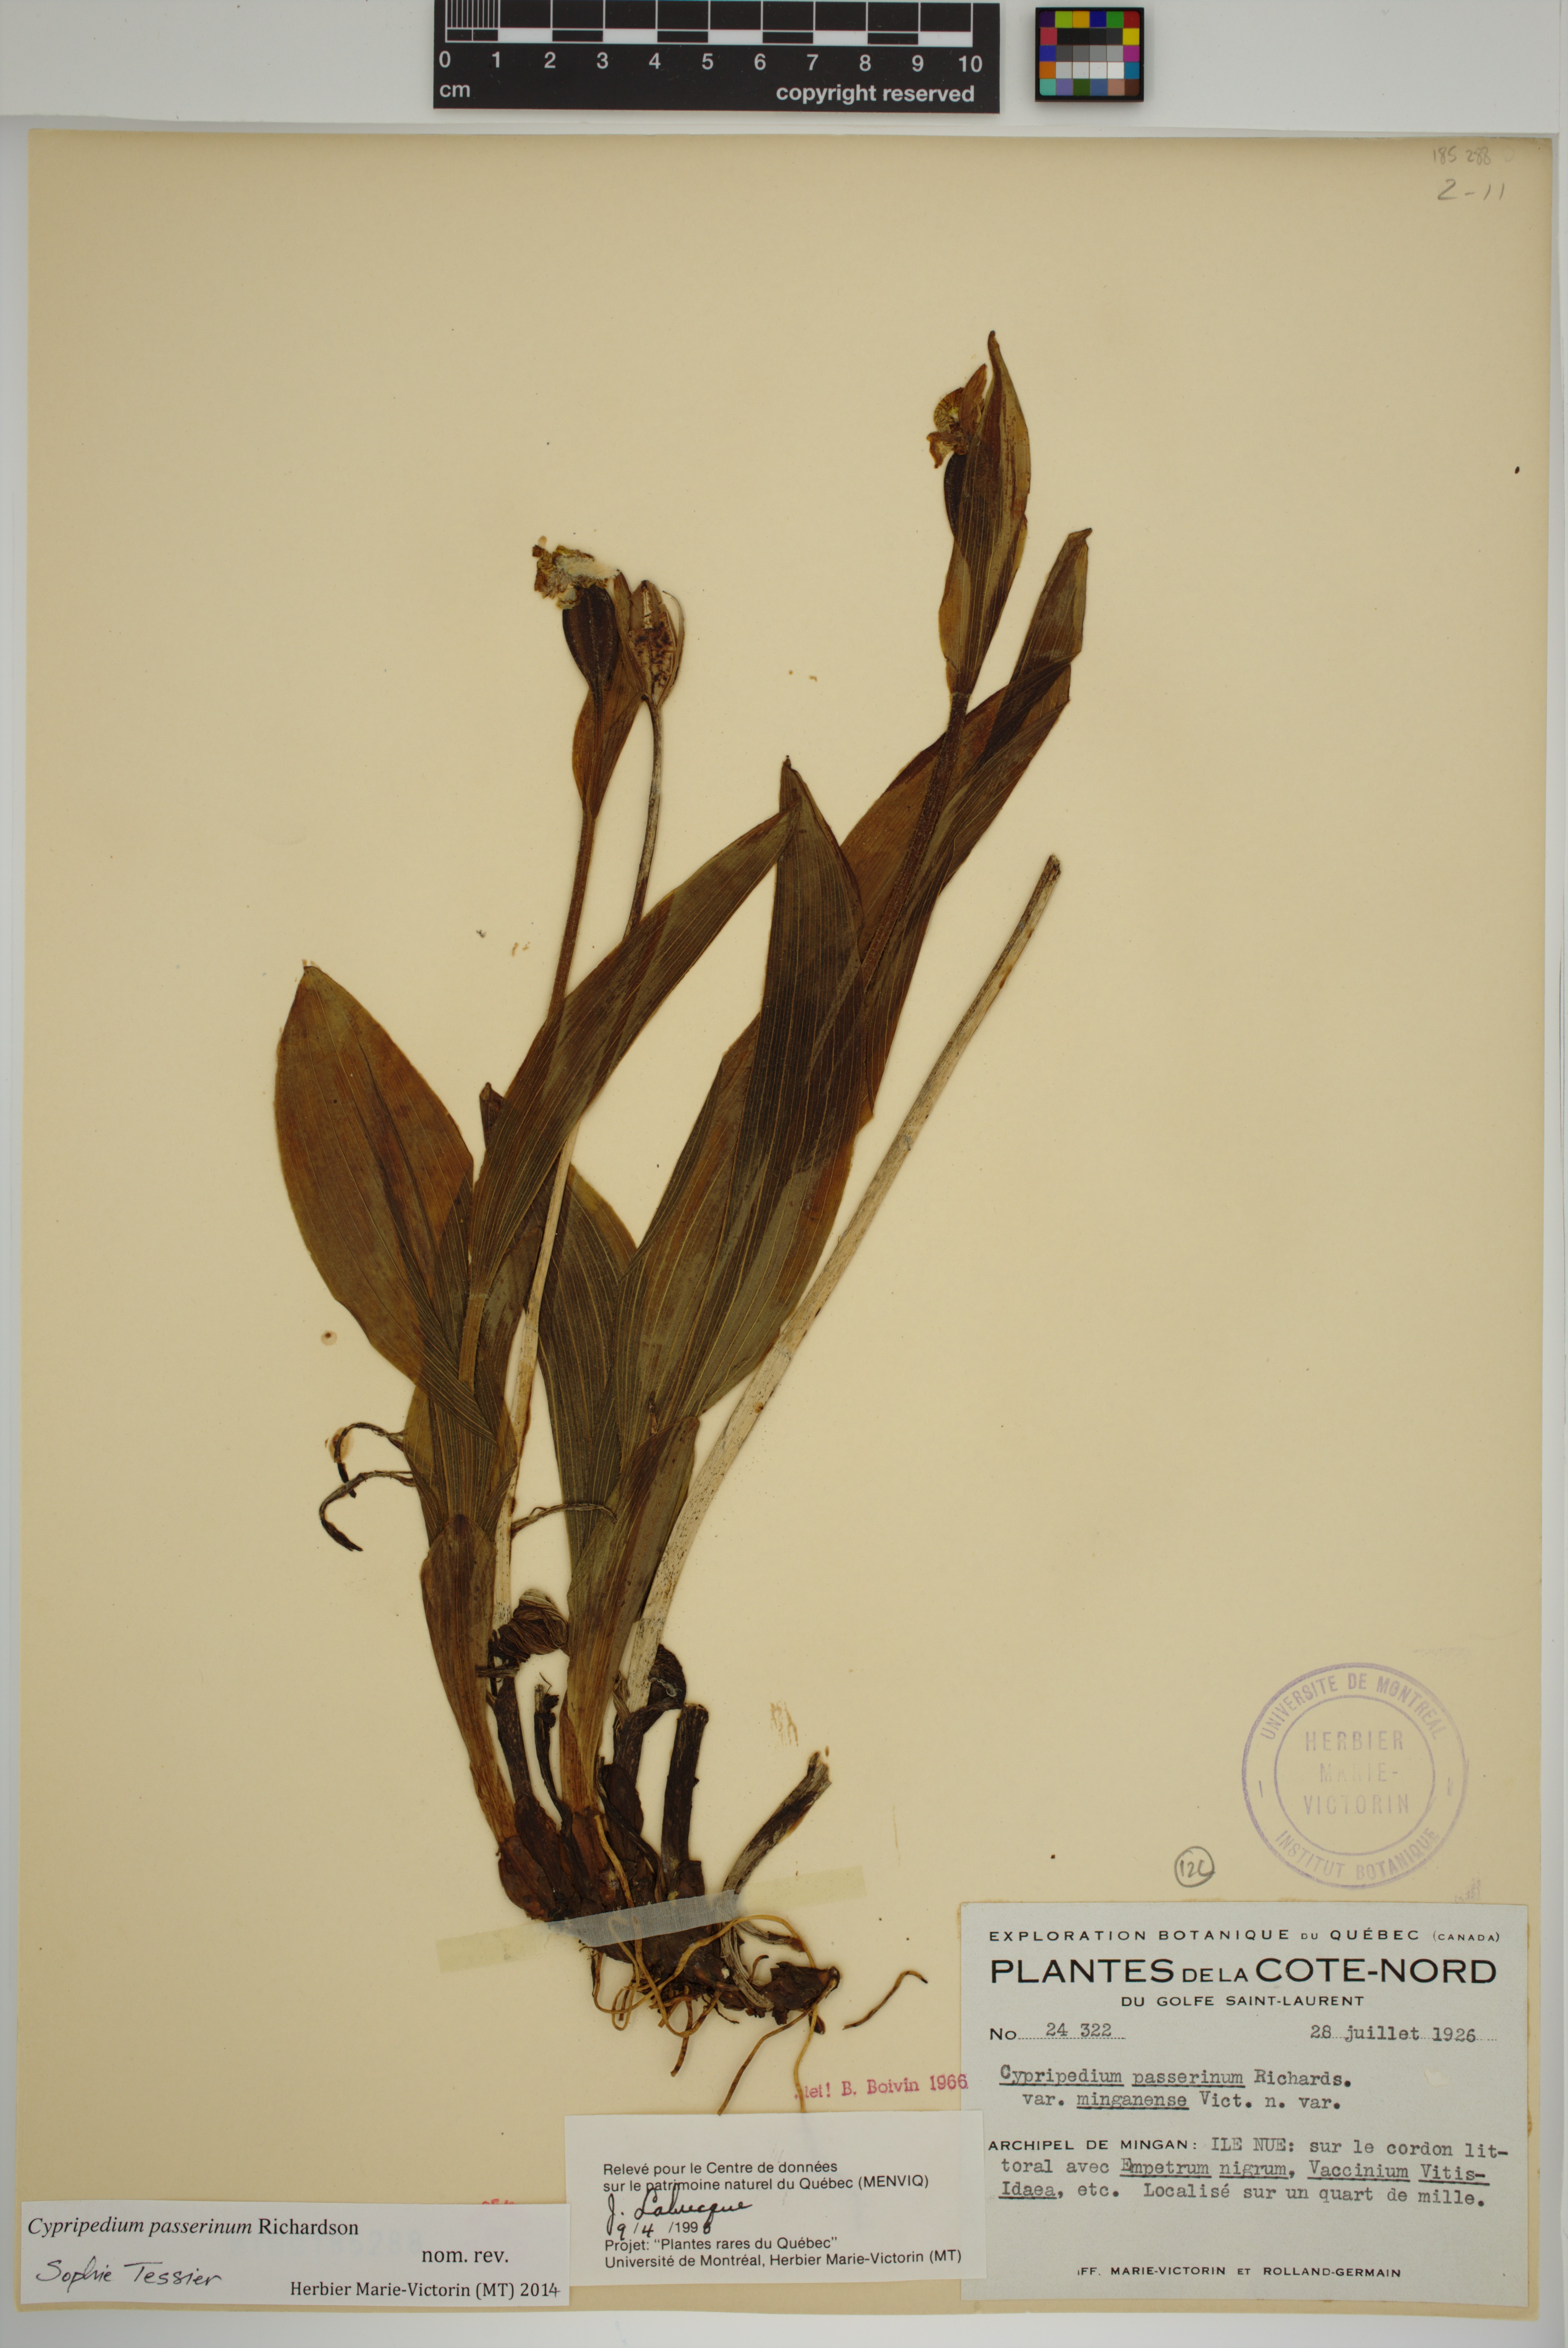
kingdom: Plantae
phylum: Tracheophyta
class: Liliopsida
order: Asparagales
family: Orchidaceae
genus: Cypripedium
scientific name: Cypripedium passerinum
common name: Sparrow's-egg lady's-slipper
